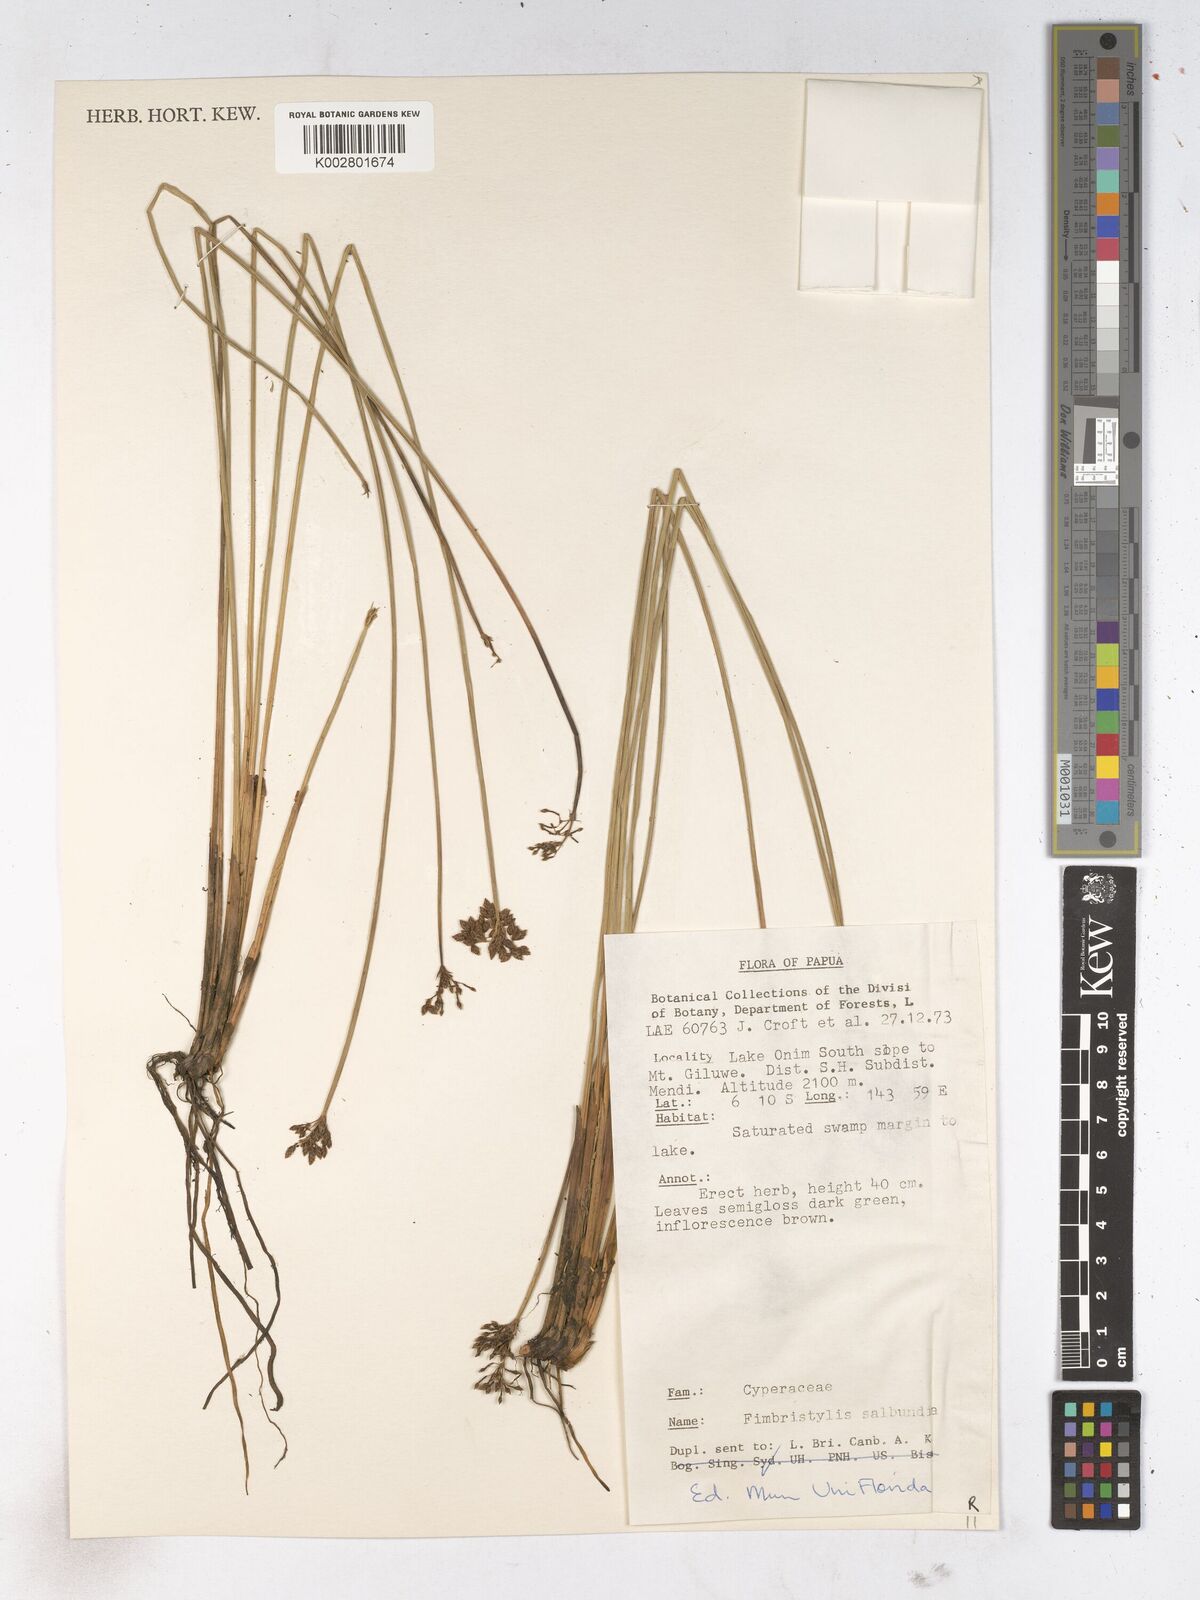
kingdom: Plantae
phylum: Tracheophyta
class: Liliopsida
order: Poales
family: Cyperaceae
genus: Fimbristylis
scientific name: Fimbristylis salbundia
